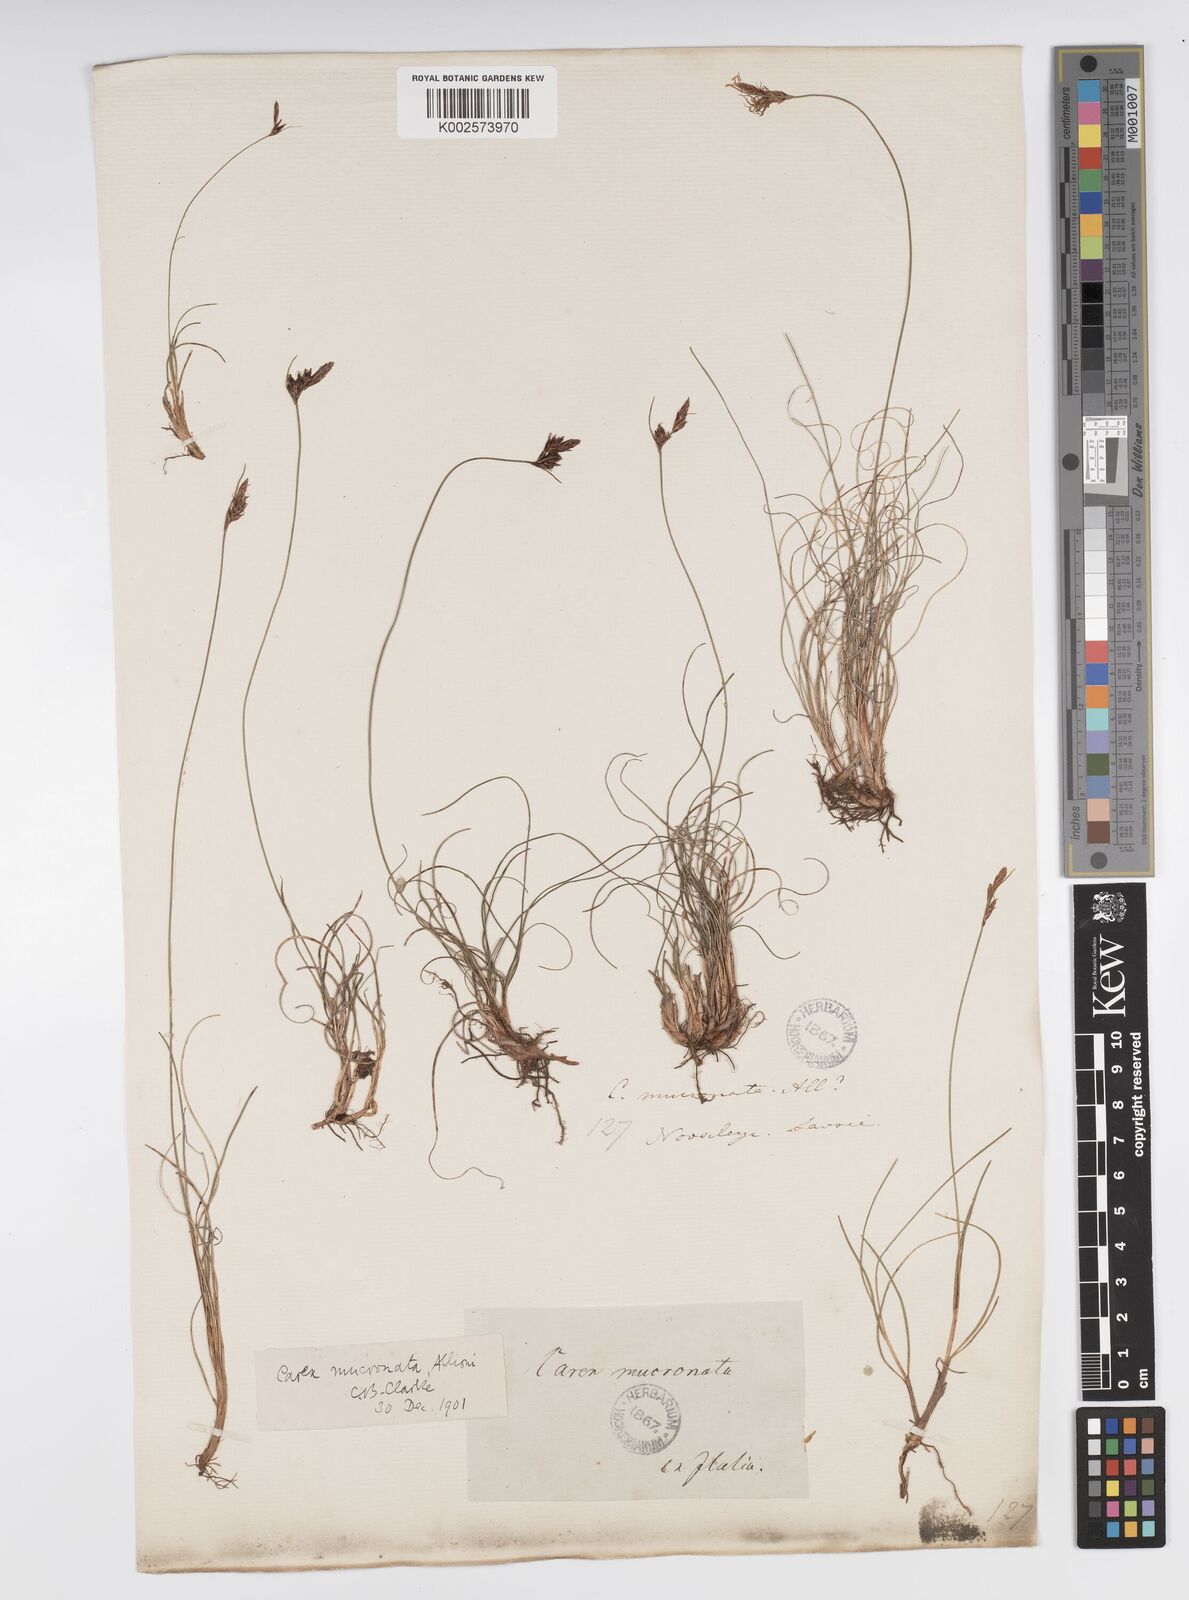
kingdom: Plantae
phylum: Tracheophyta
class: Liliopsida
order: Poales
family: Cyperaceae
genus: Carex
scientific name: Carex mucronata
